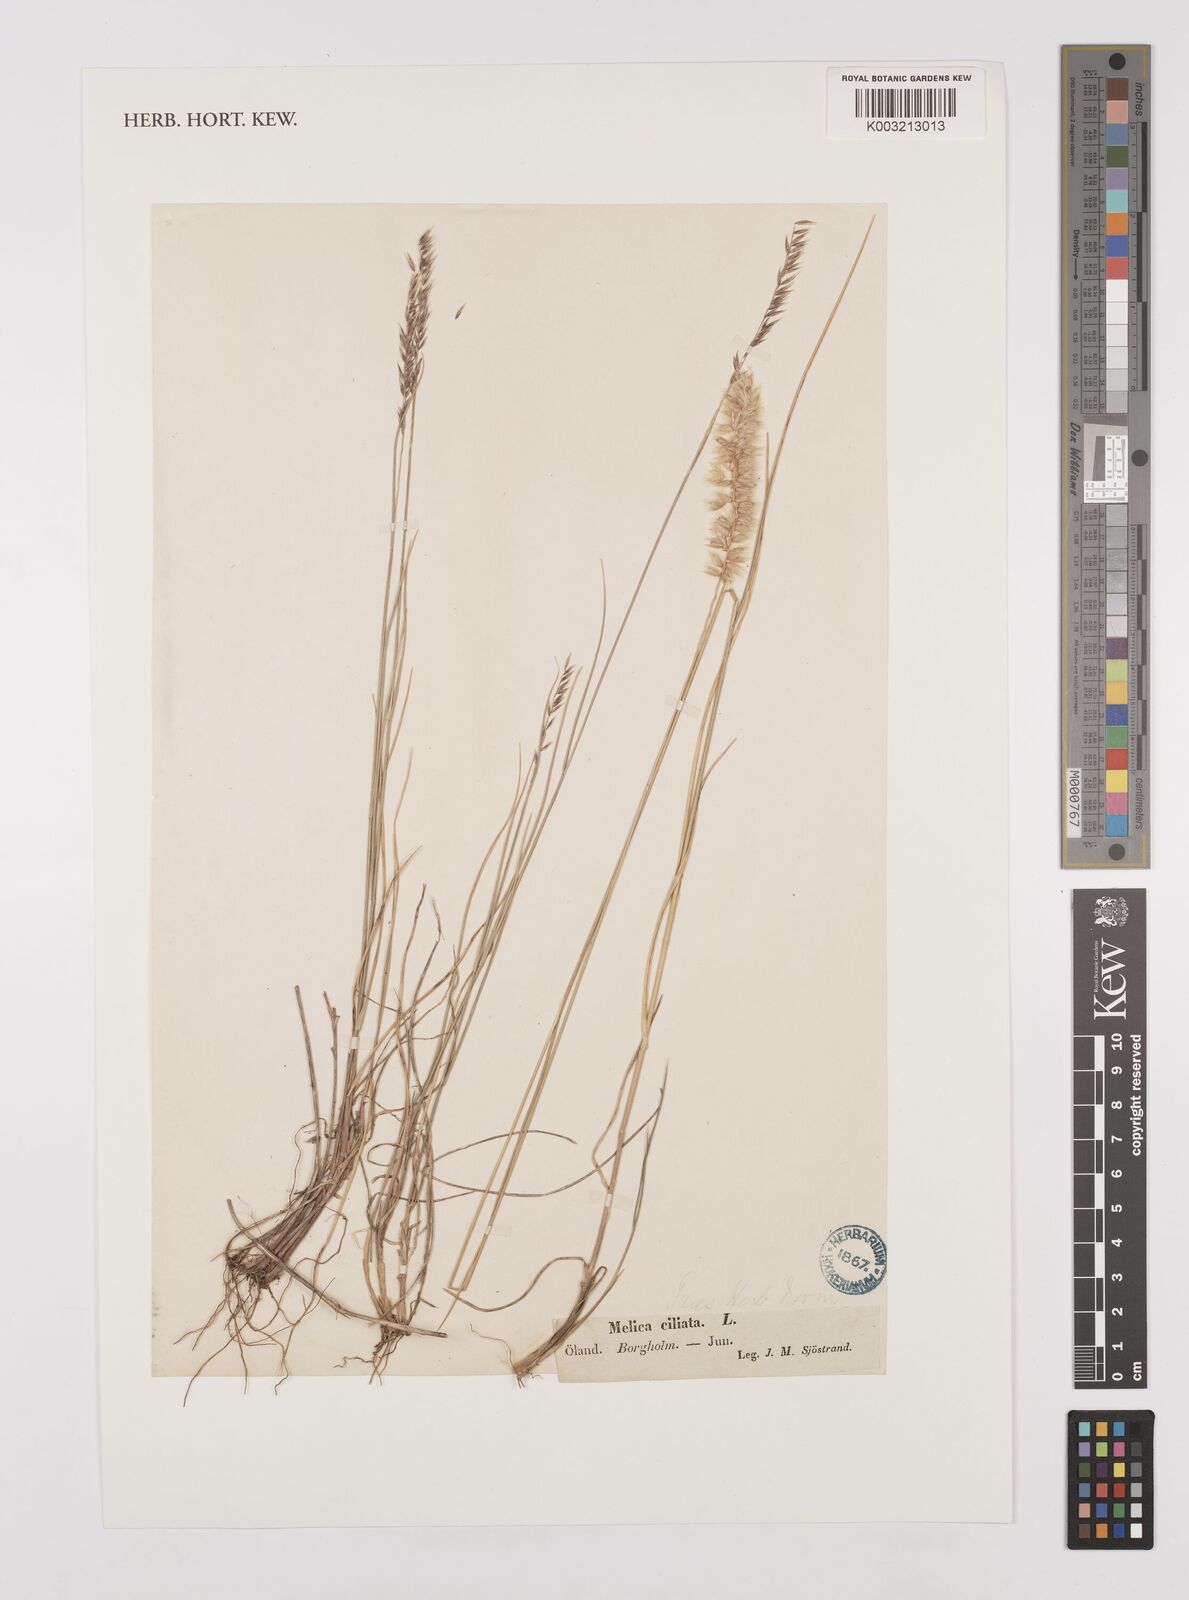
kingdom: Plantae
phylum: Tracheophyta
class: Liliopsida
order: Poales
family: Poaceae
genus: Melica
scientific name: Melica ciliata
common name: Hairy melicgrass
